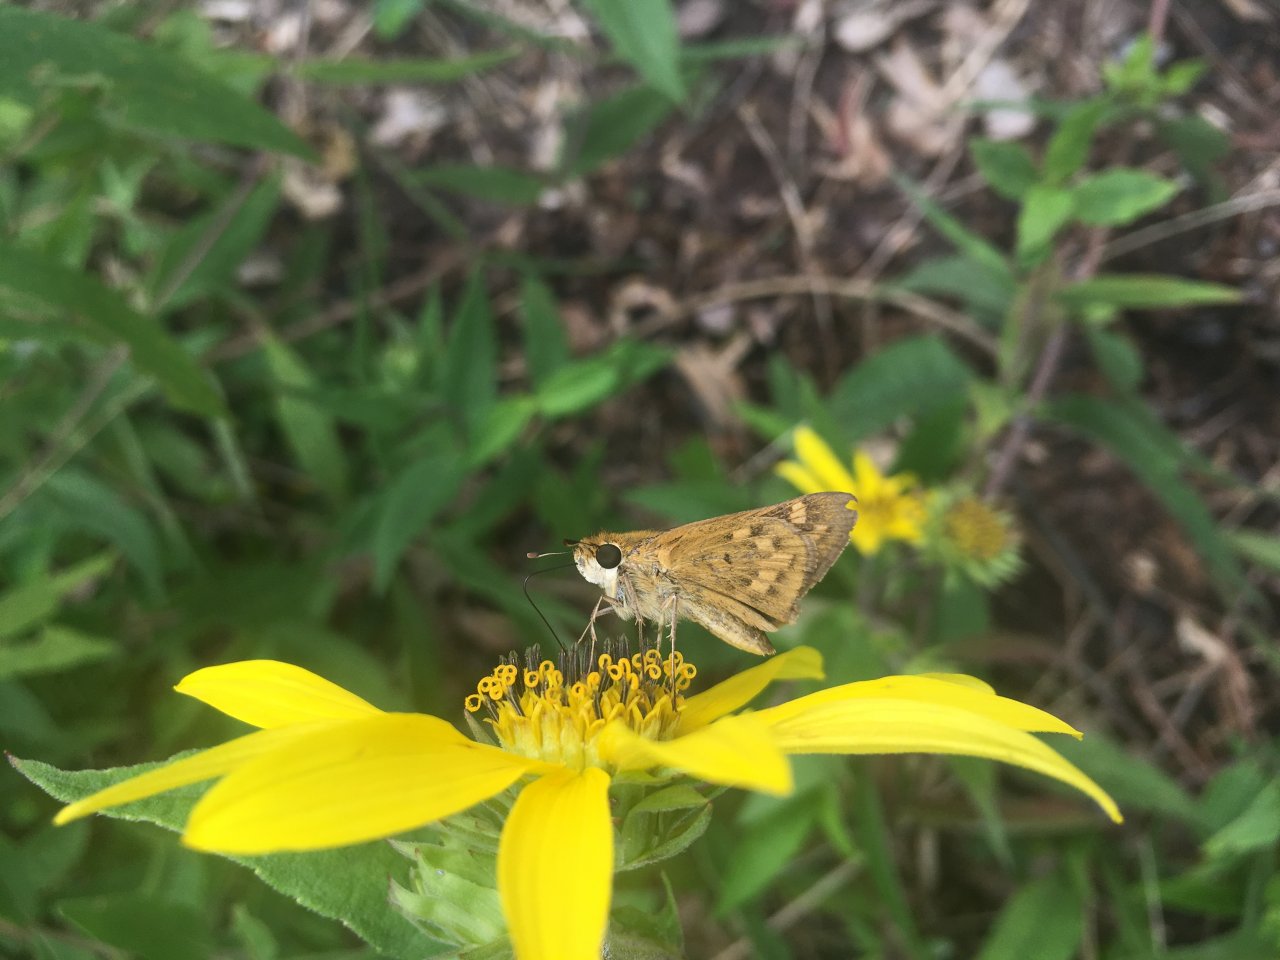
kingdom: Animalia
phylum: Arthropoda
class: Insecta
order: Lepidoptera
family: Hesperiidae
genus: Hylephila
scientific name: Hylephila phyleus
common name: Fiery Skipper
